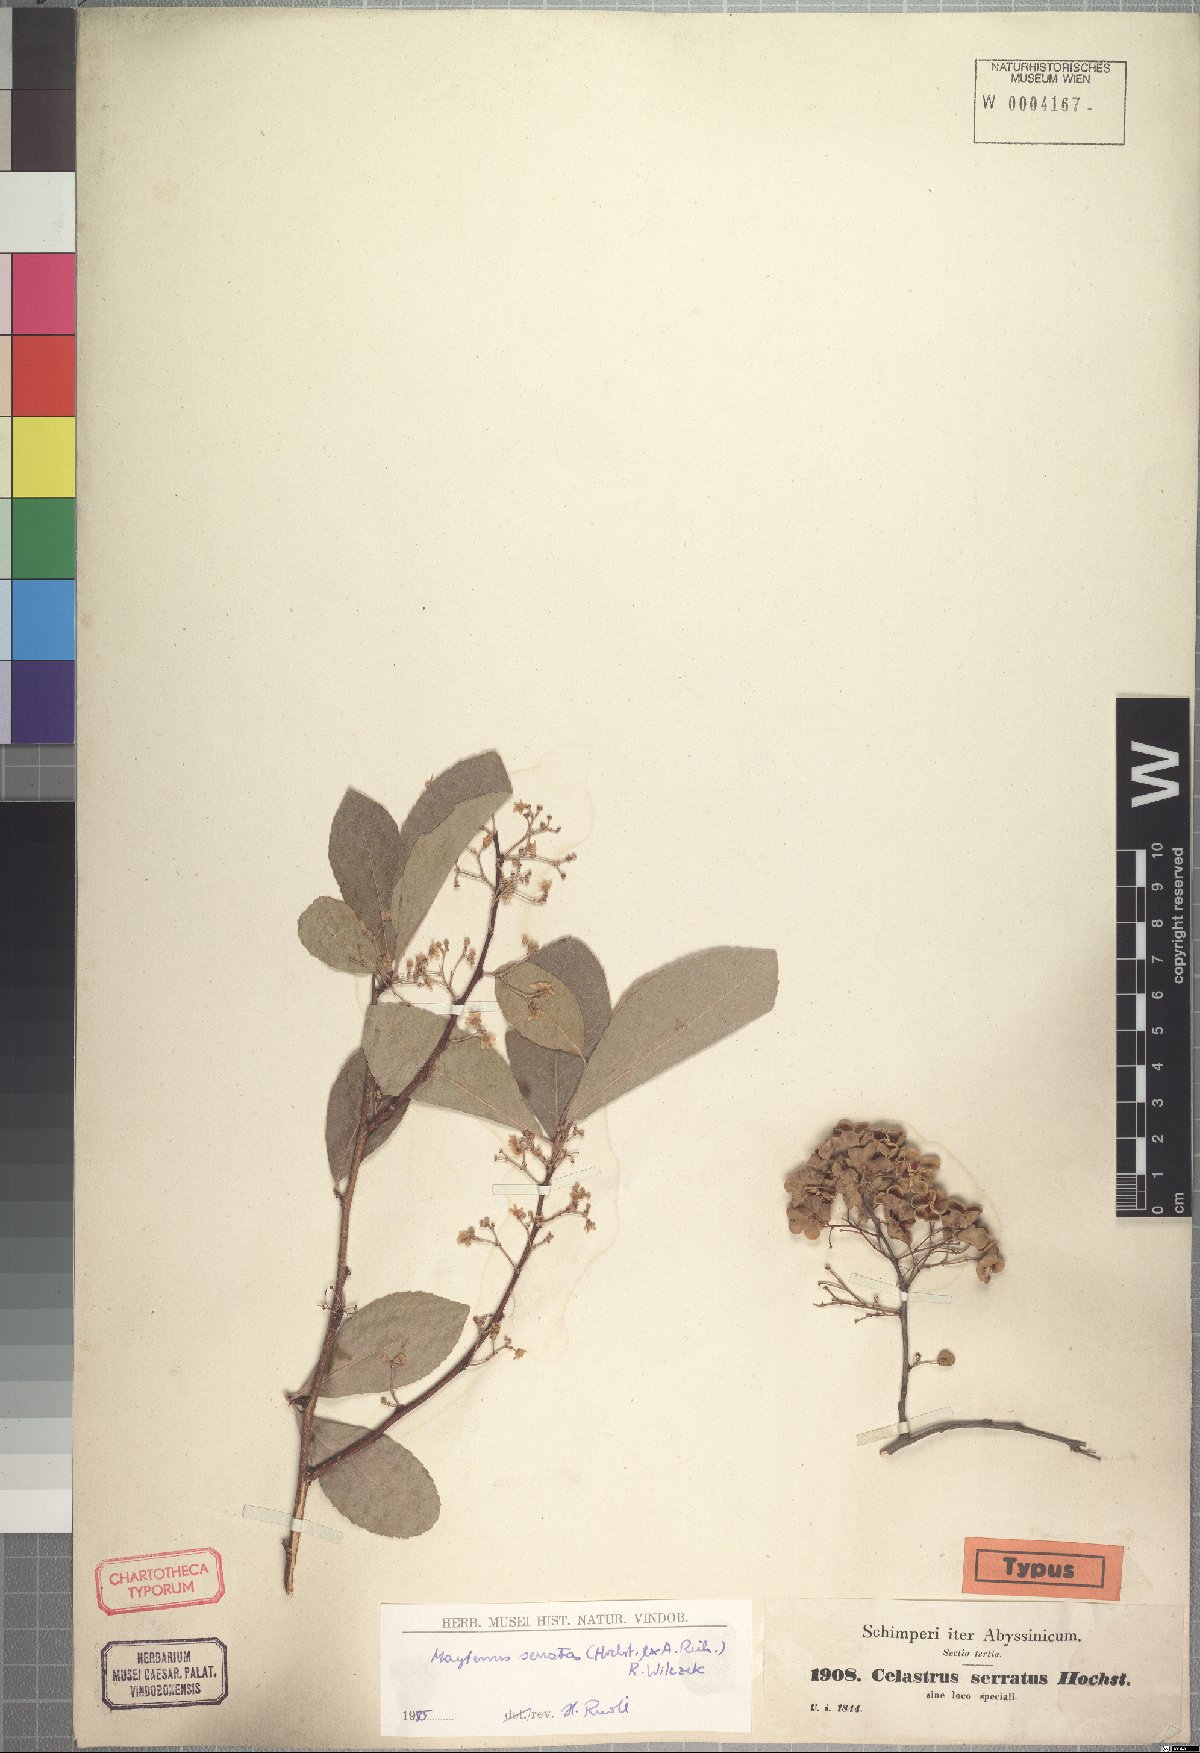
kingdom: Plantae
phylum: Tracheophyta
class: Magnoliopsida
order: Celastrales
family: Celastraceae
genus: Gymnosporia
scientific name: Gymnosporia serrata
